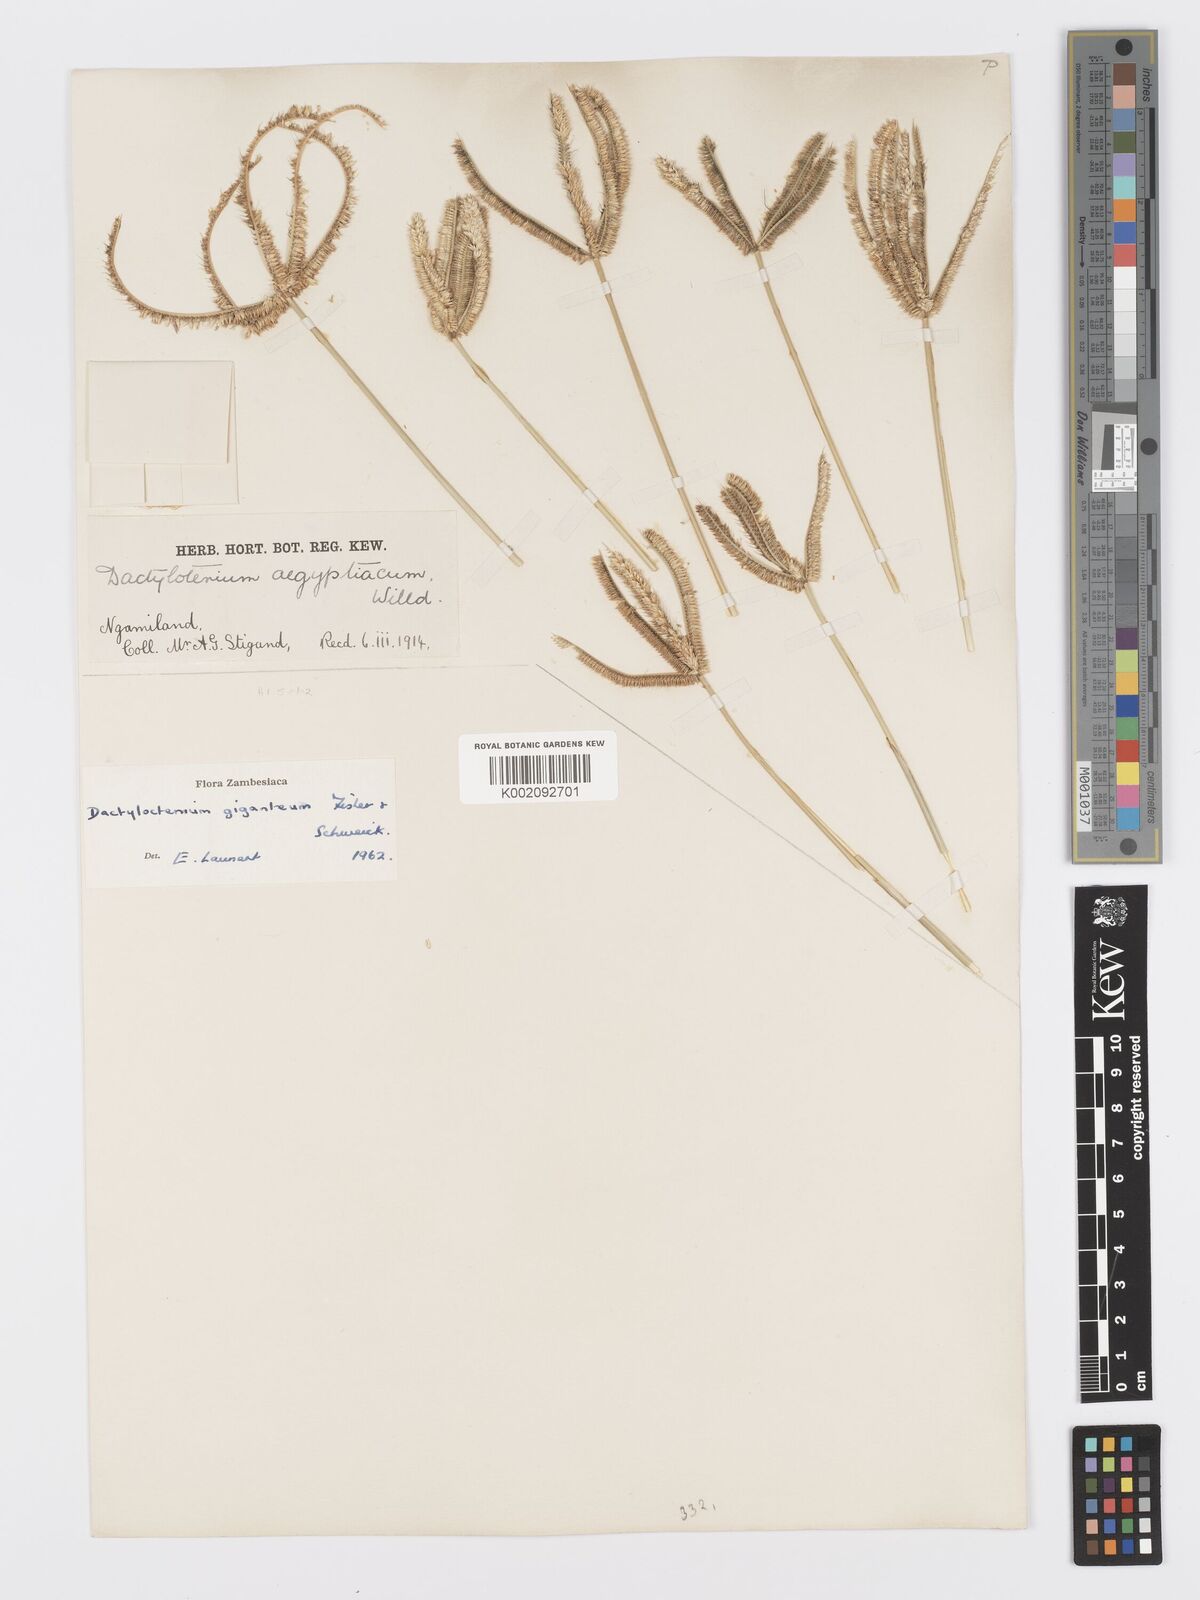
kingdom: Plantae
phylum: Tracheophyta
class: Liliopsida
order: Poales
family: Poaceae
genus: Dactyloctenium
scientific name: Dactyloctenium giganteum
